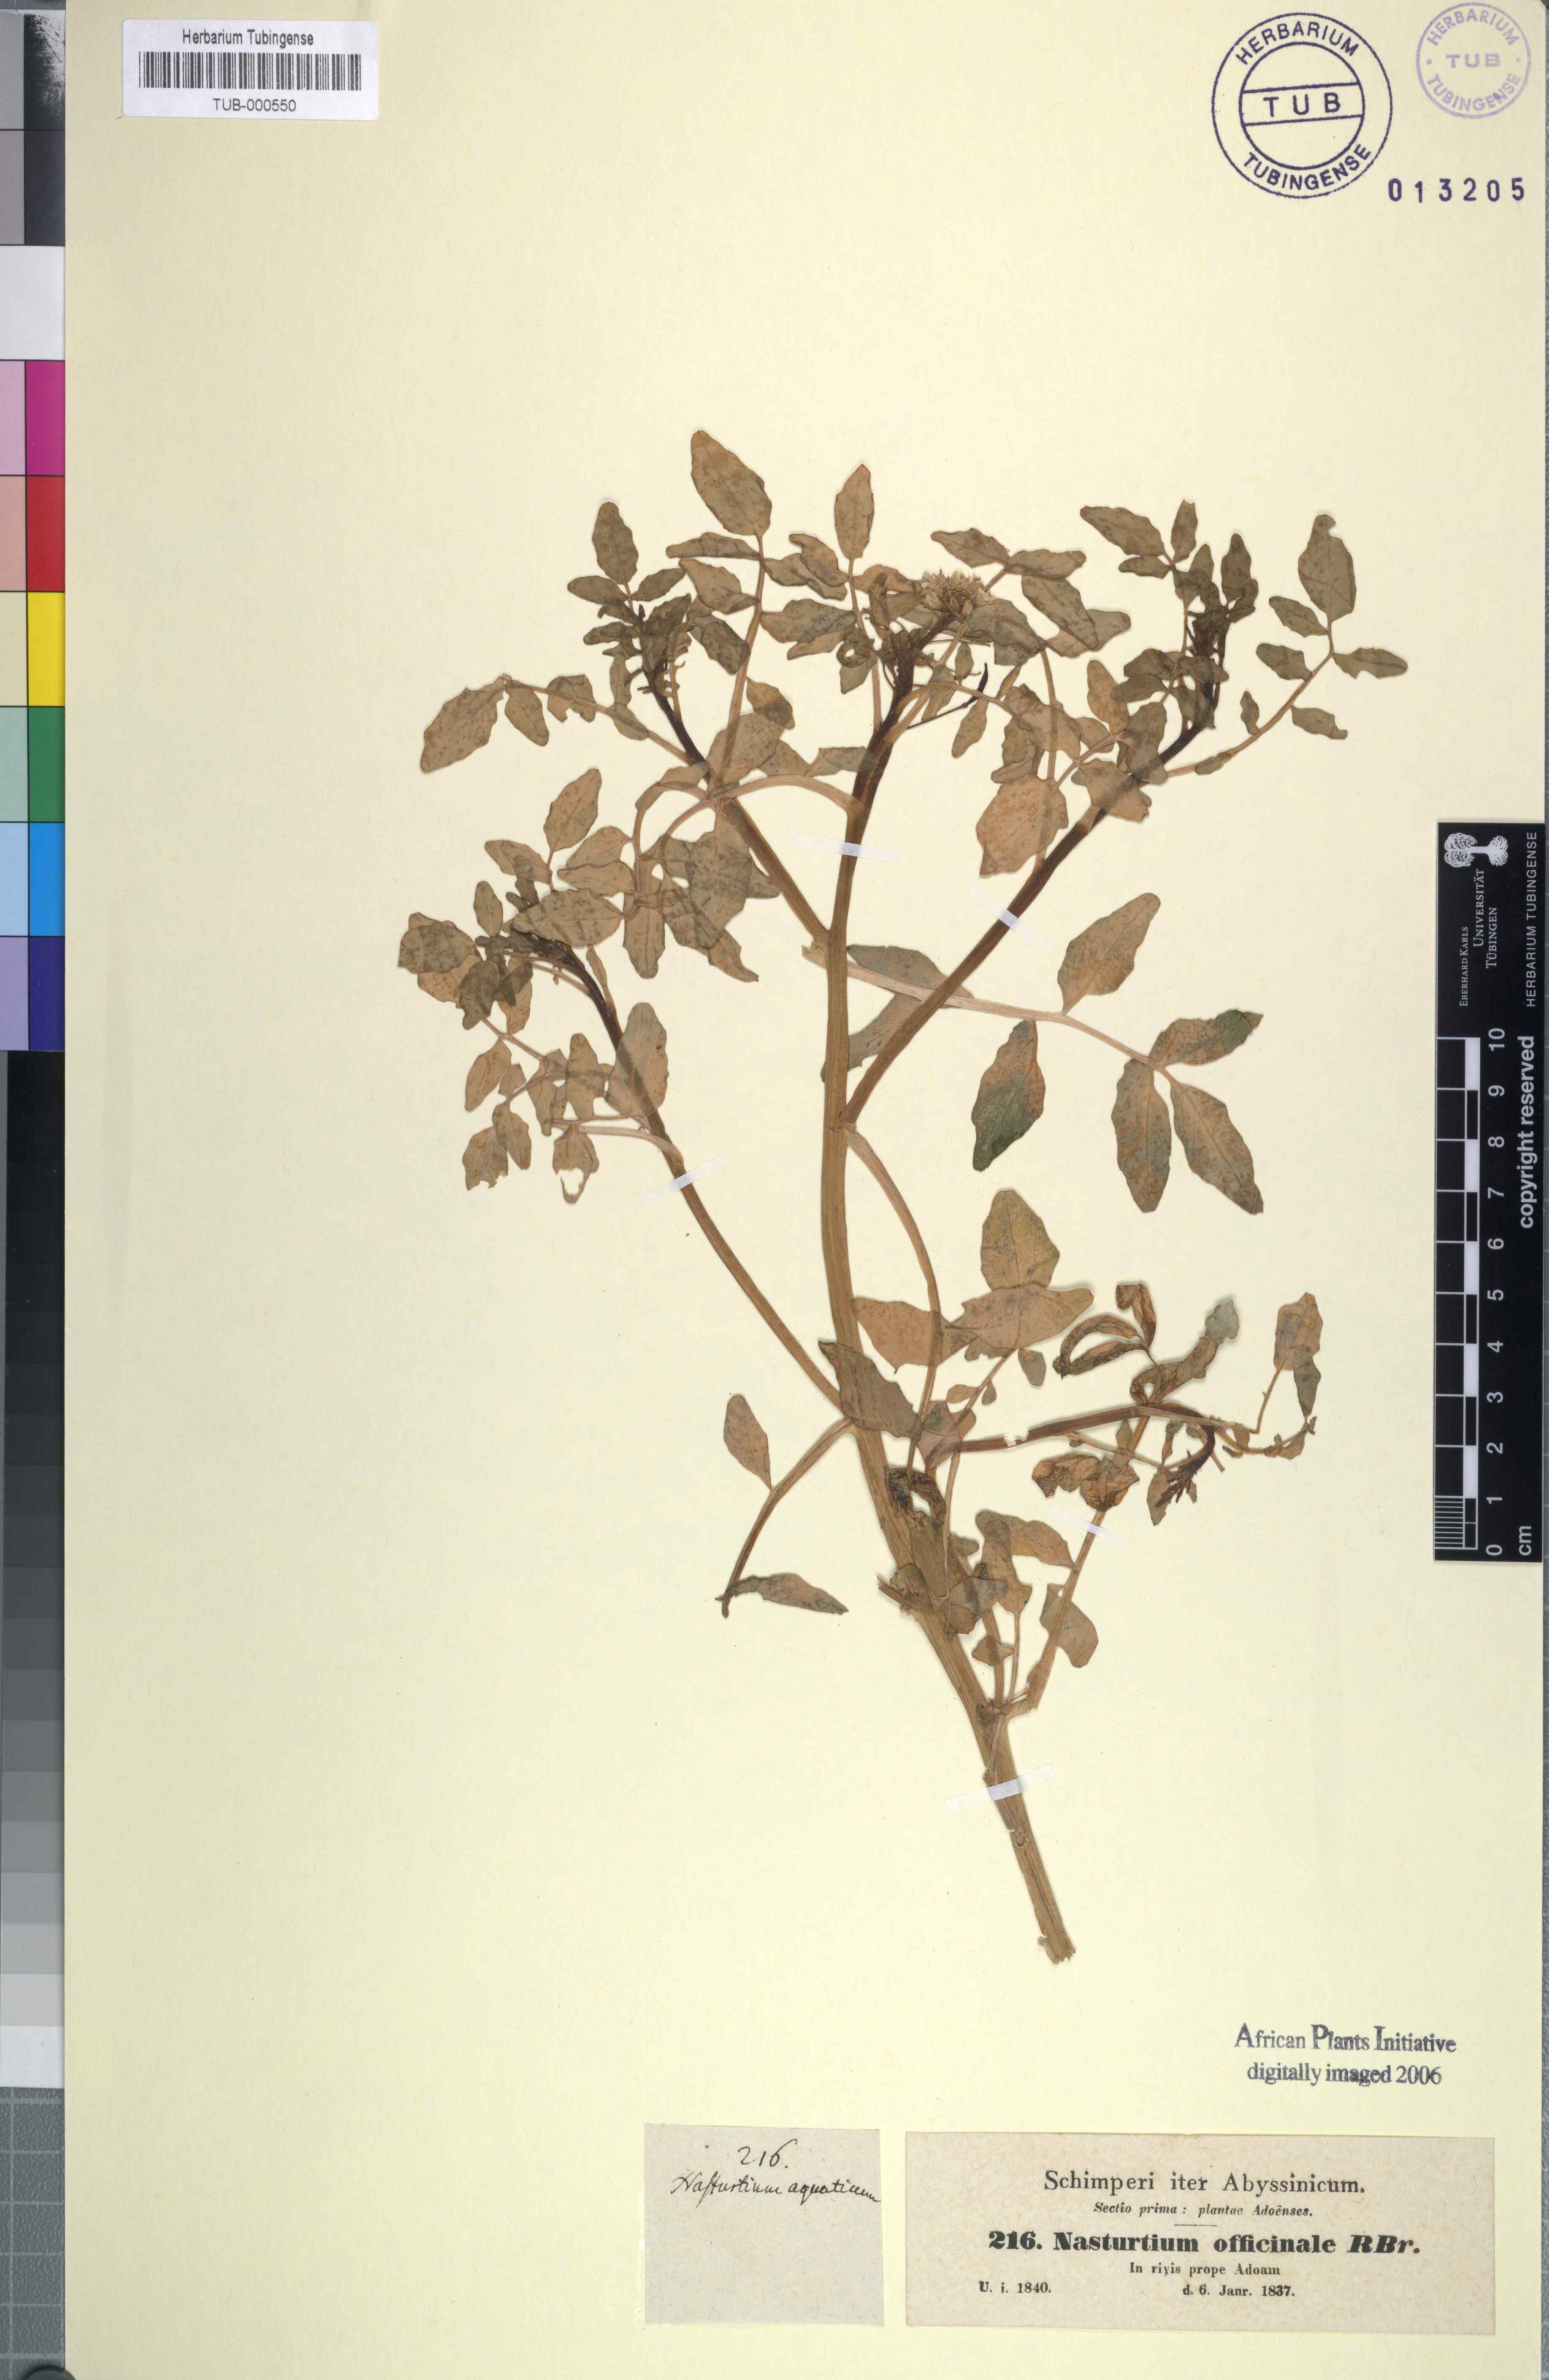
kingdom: Plantae
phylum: Tracheophyta
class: Magnoliopsida
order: Brassicales
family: Brassicaceae
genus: Nasturtium
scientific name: Nasturtium officinale
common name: Watercress
